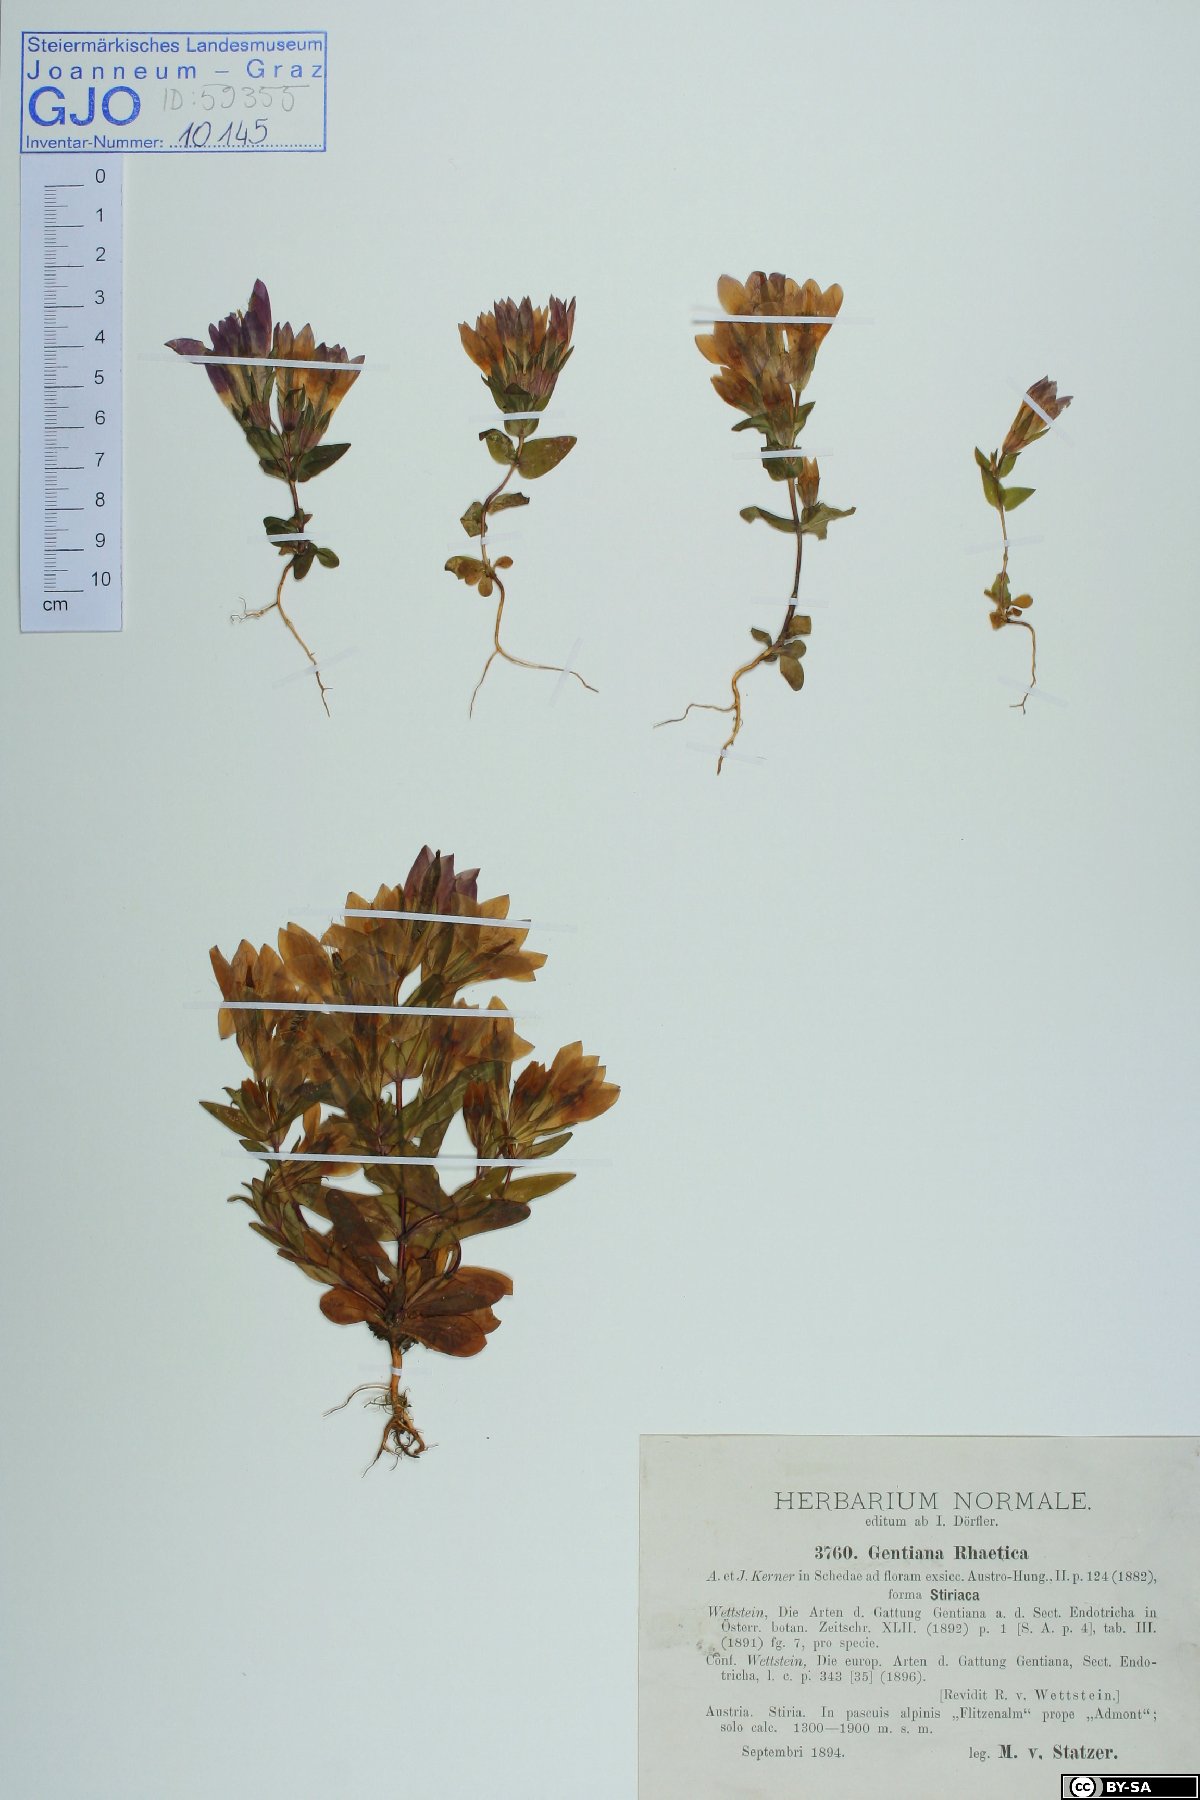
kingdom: Plantae
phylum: Tracheophyta
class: Magnoliopsida
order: Gentianales
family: Gentianaceae
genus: Gentianella
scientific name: Gentianella rhaetica
